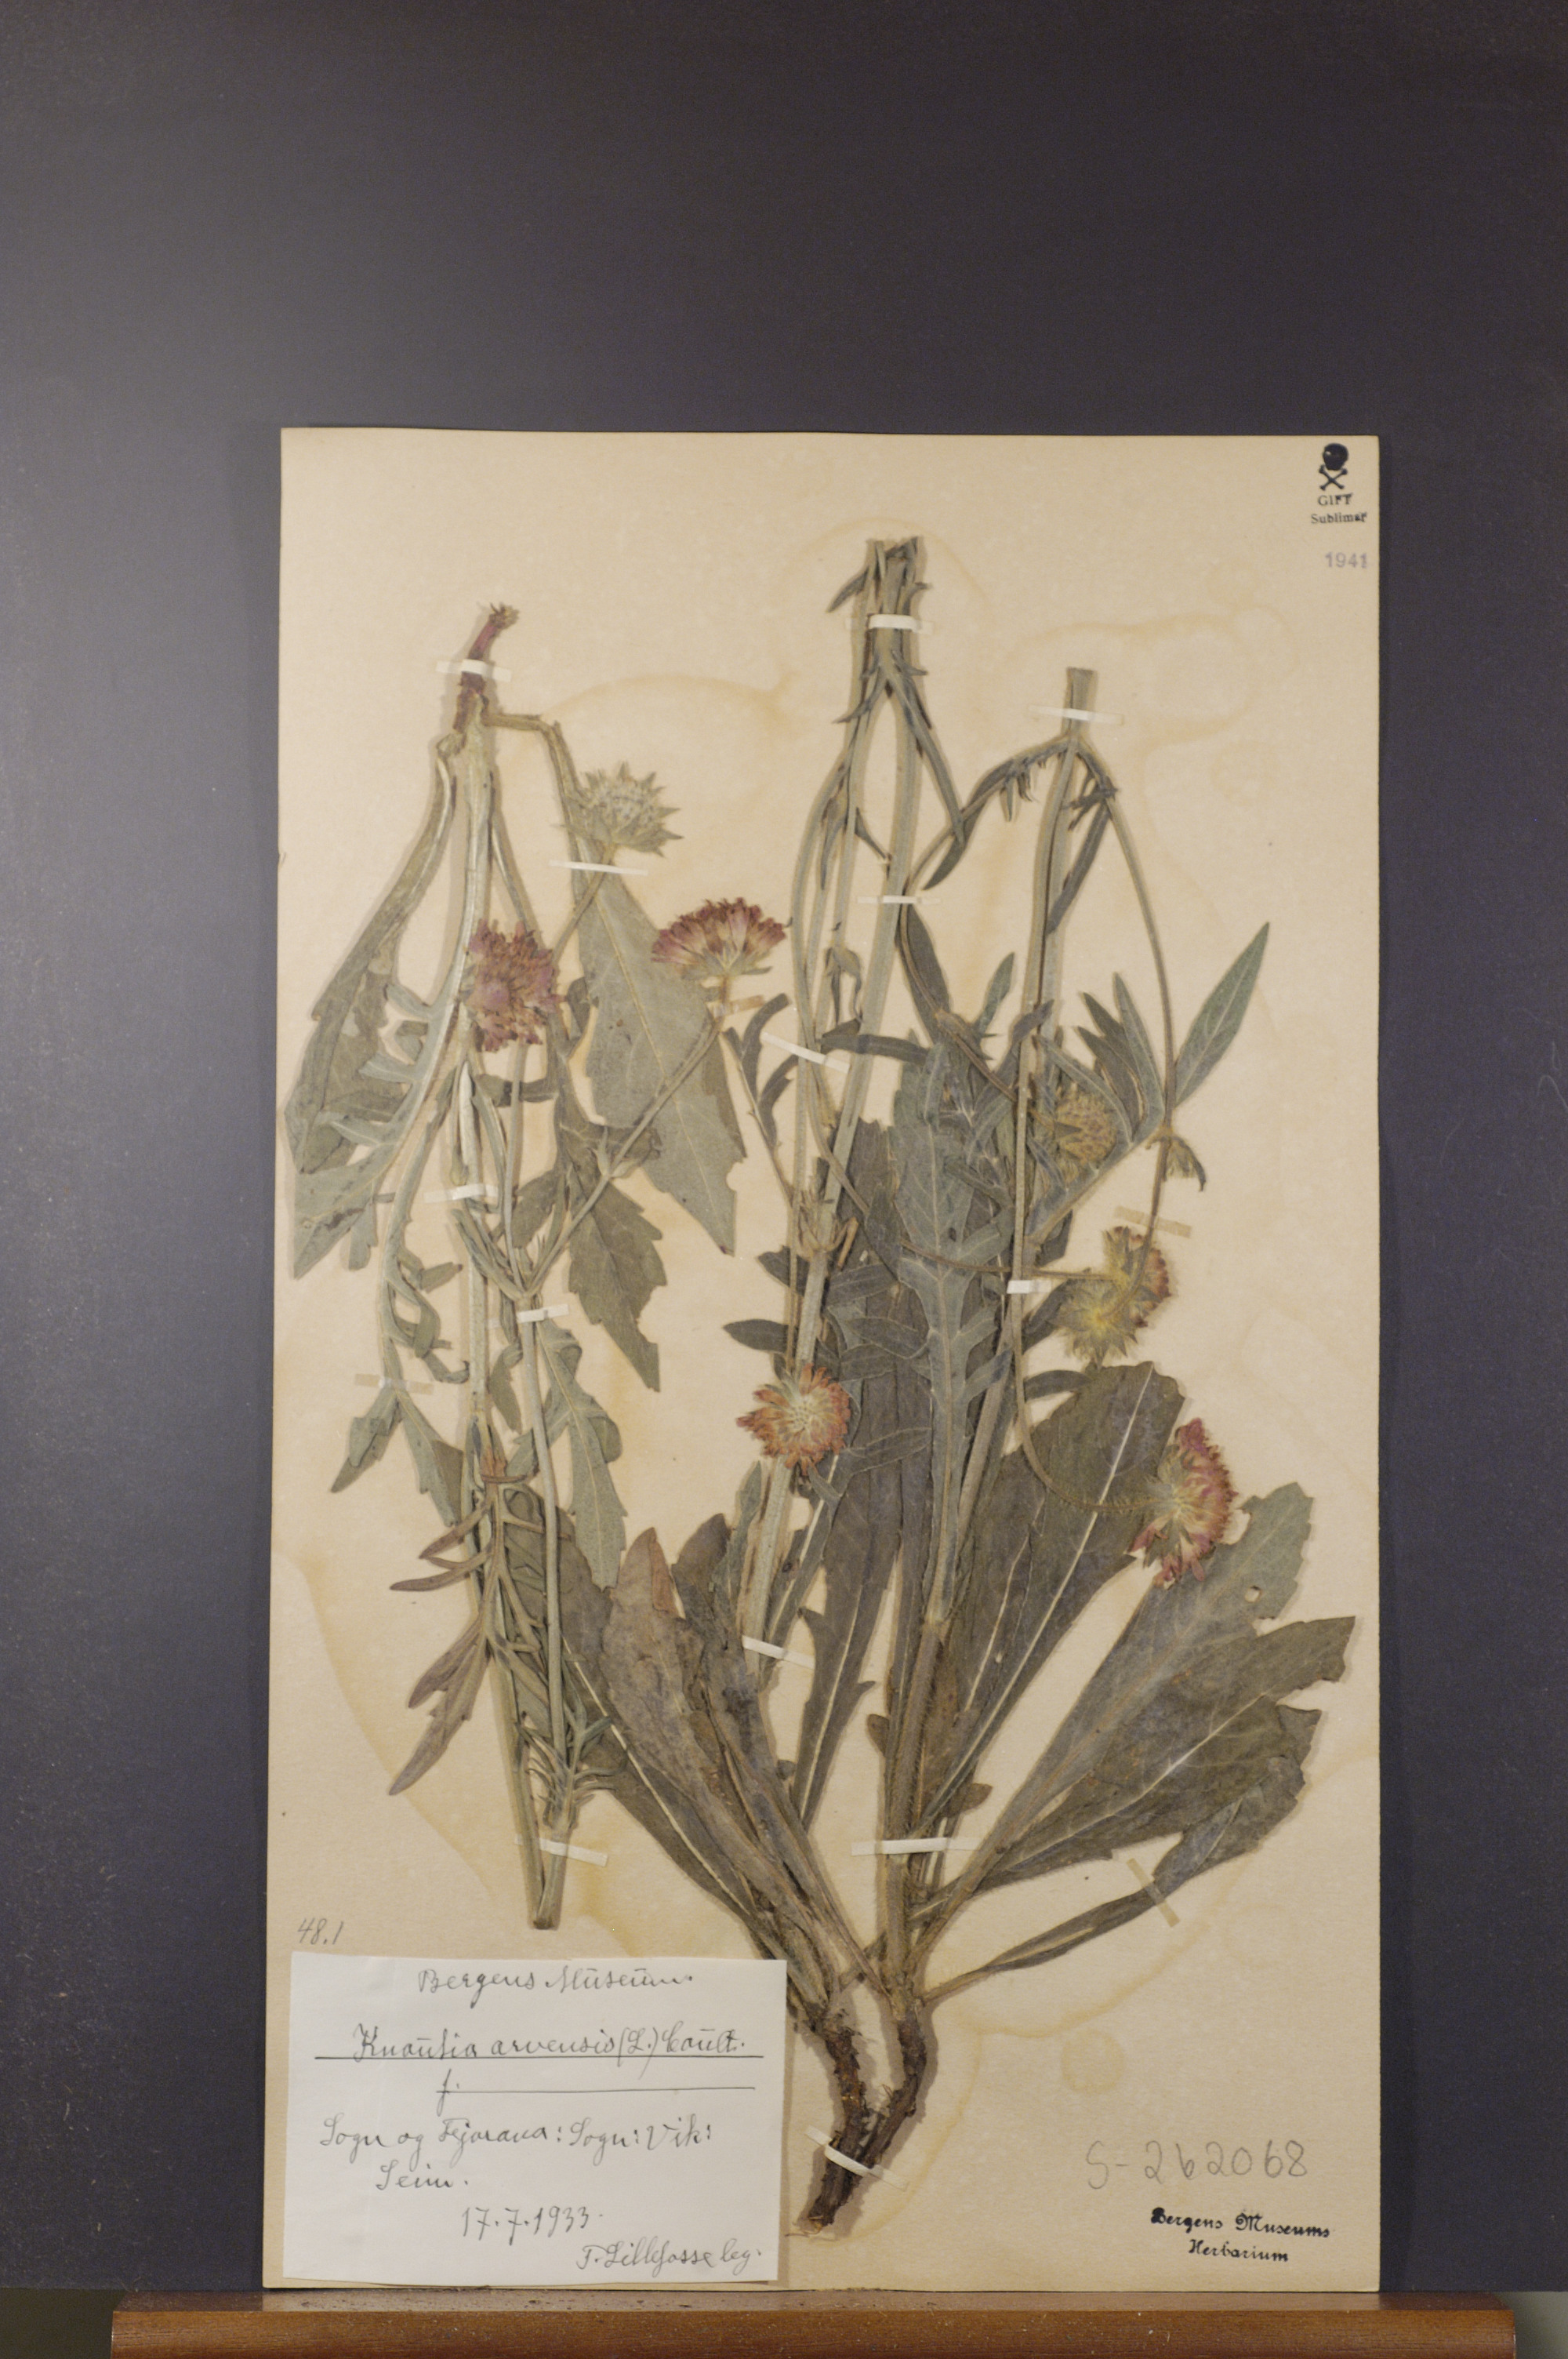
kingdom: Plantae
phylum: Tracheophyta
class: Magnoliopsida
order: Dipsacales
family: Caprifoliaceae
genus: Knautia
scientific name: Knautia arvensis
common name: Field scabiosa
